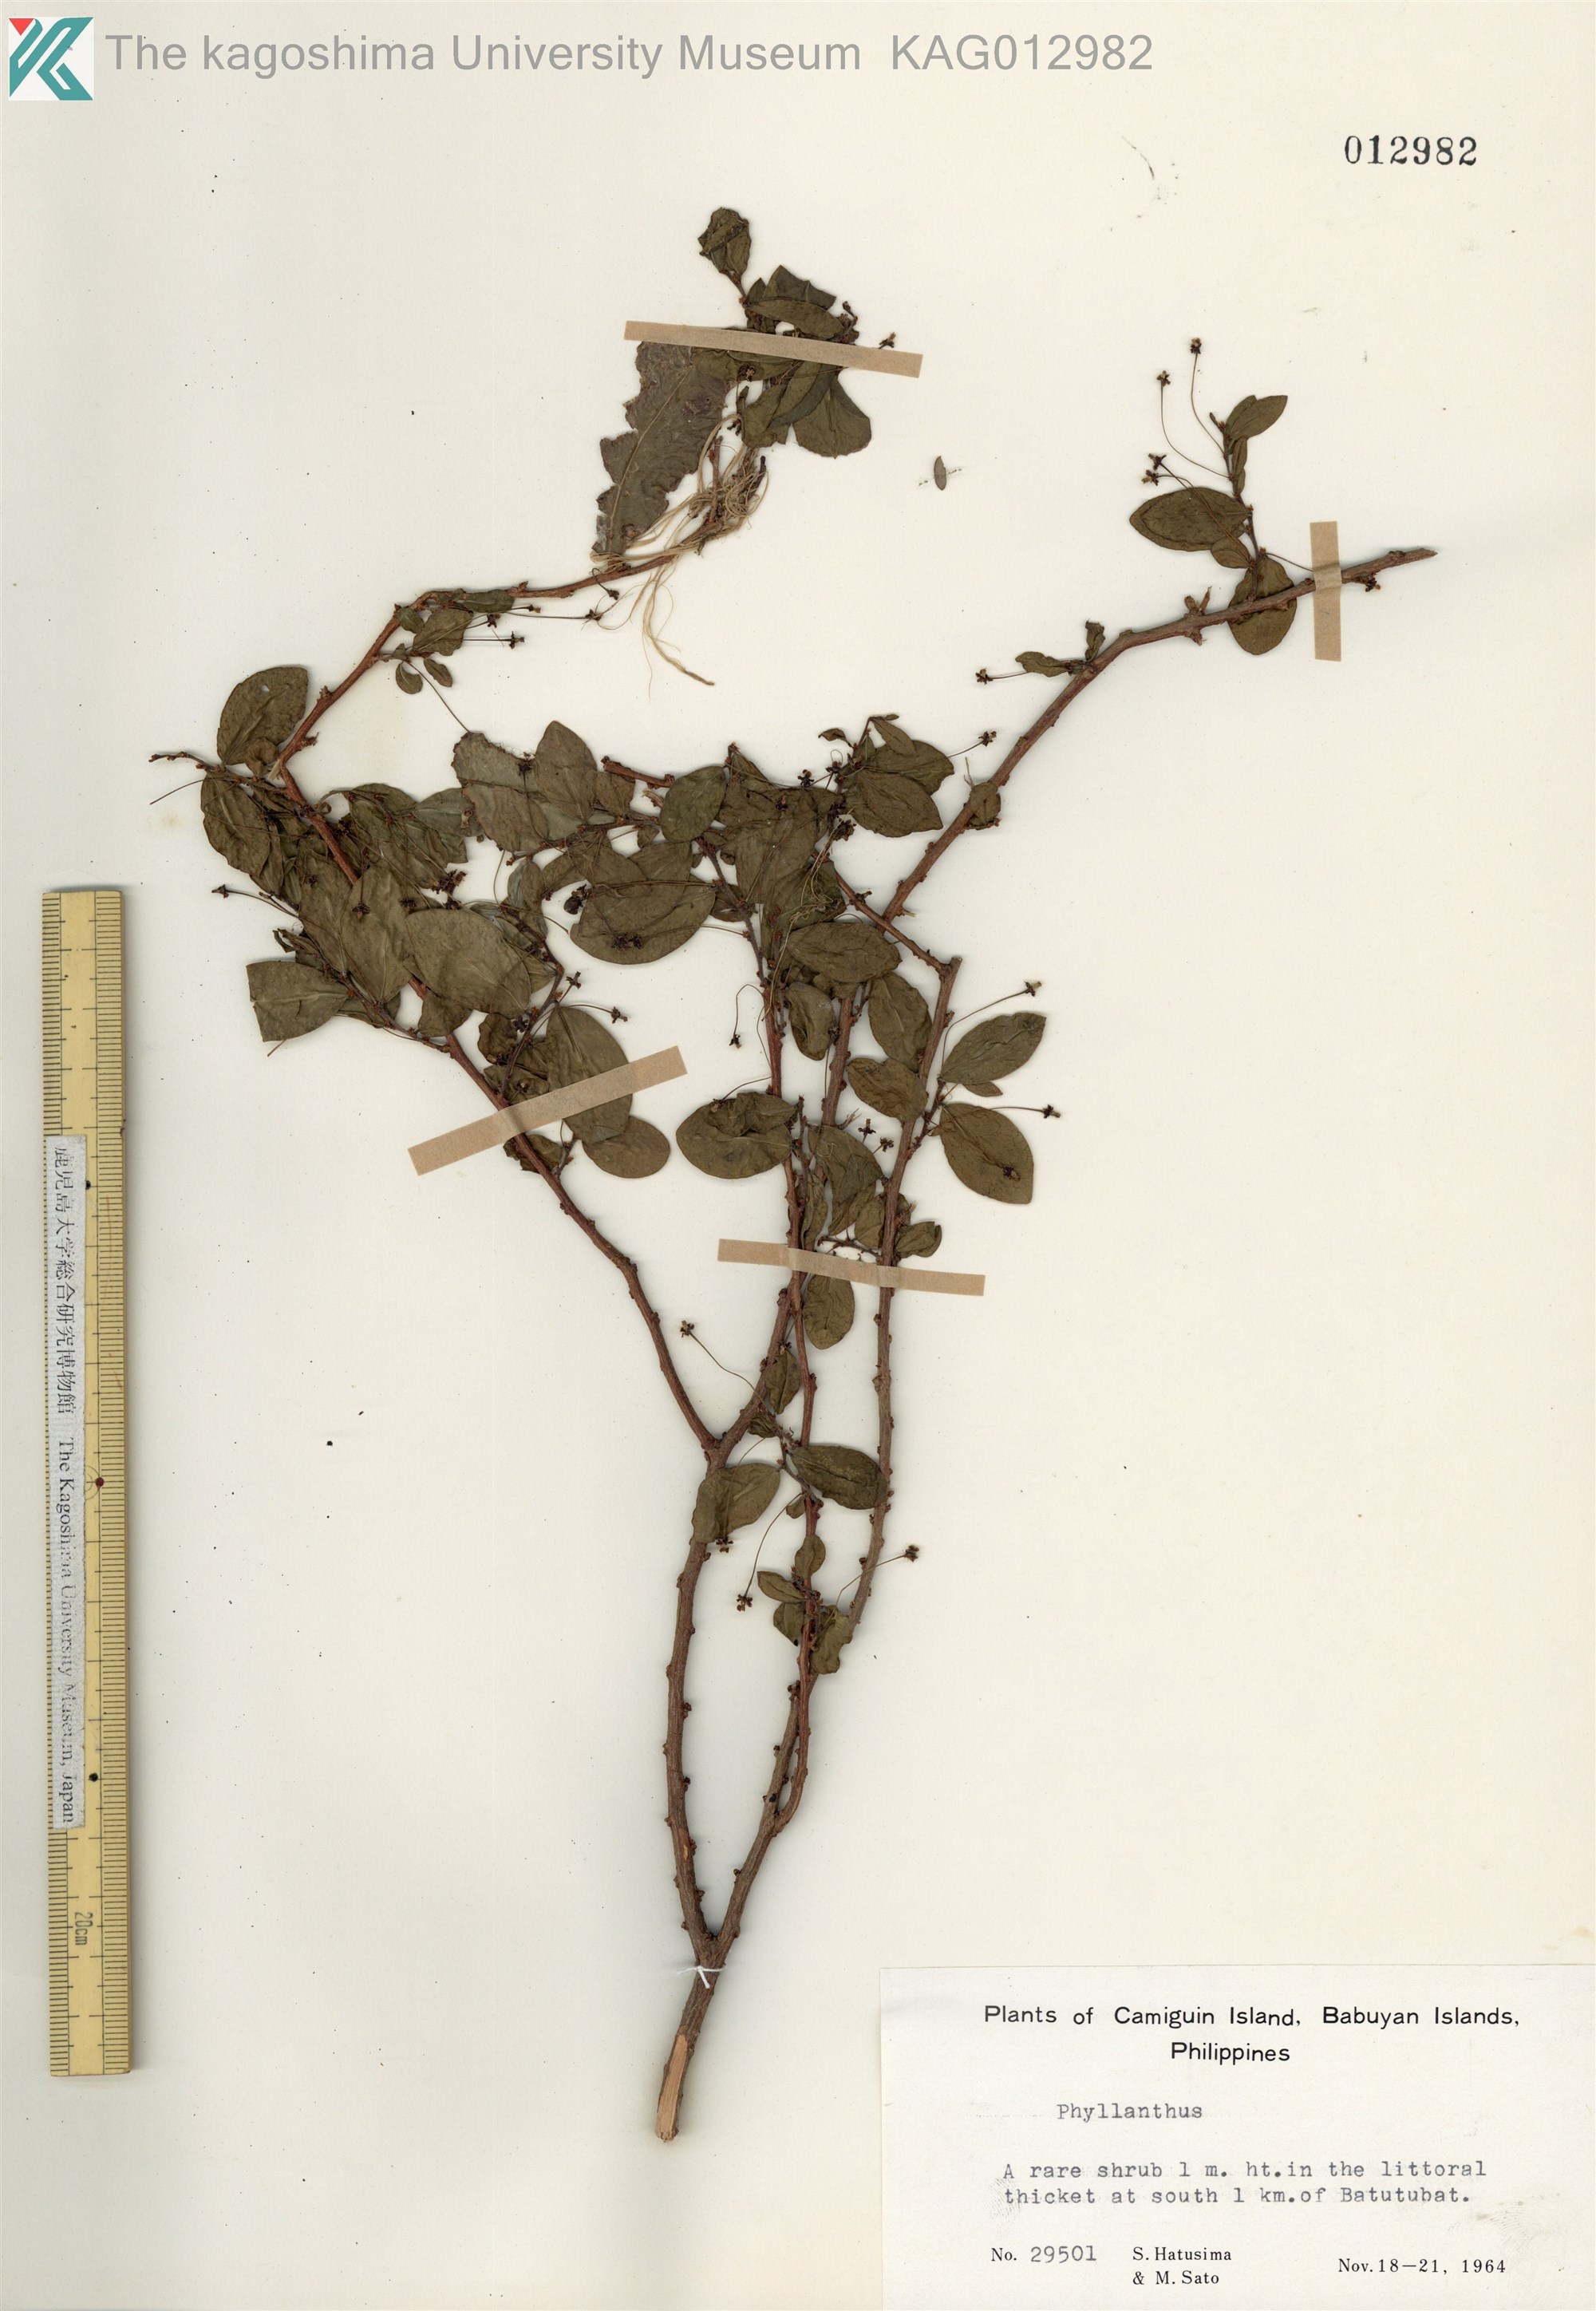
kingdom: Plantae
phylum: Tracheophyta
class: Magnoliopsida
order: Malpighiales
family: Phyllanthaceae
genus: Phyllanthus
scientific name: Phyllanthus
